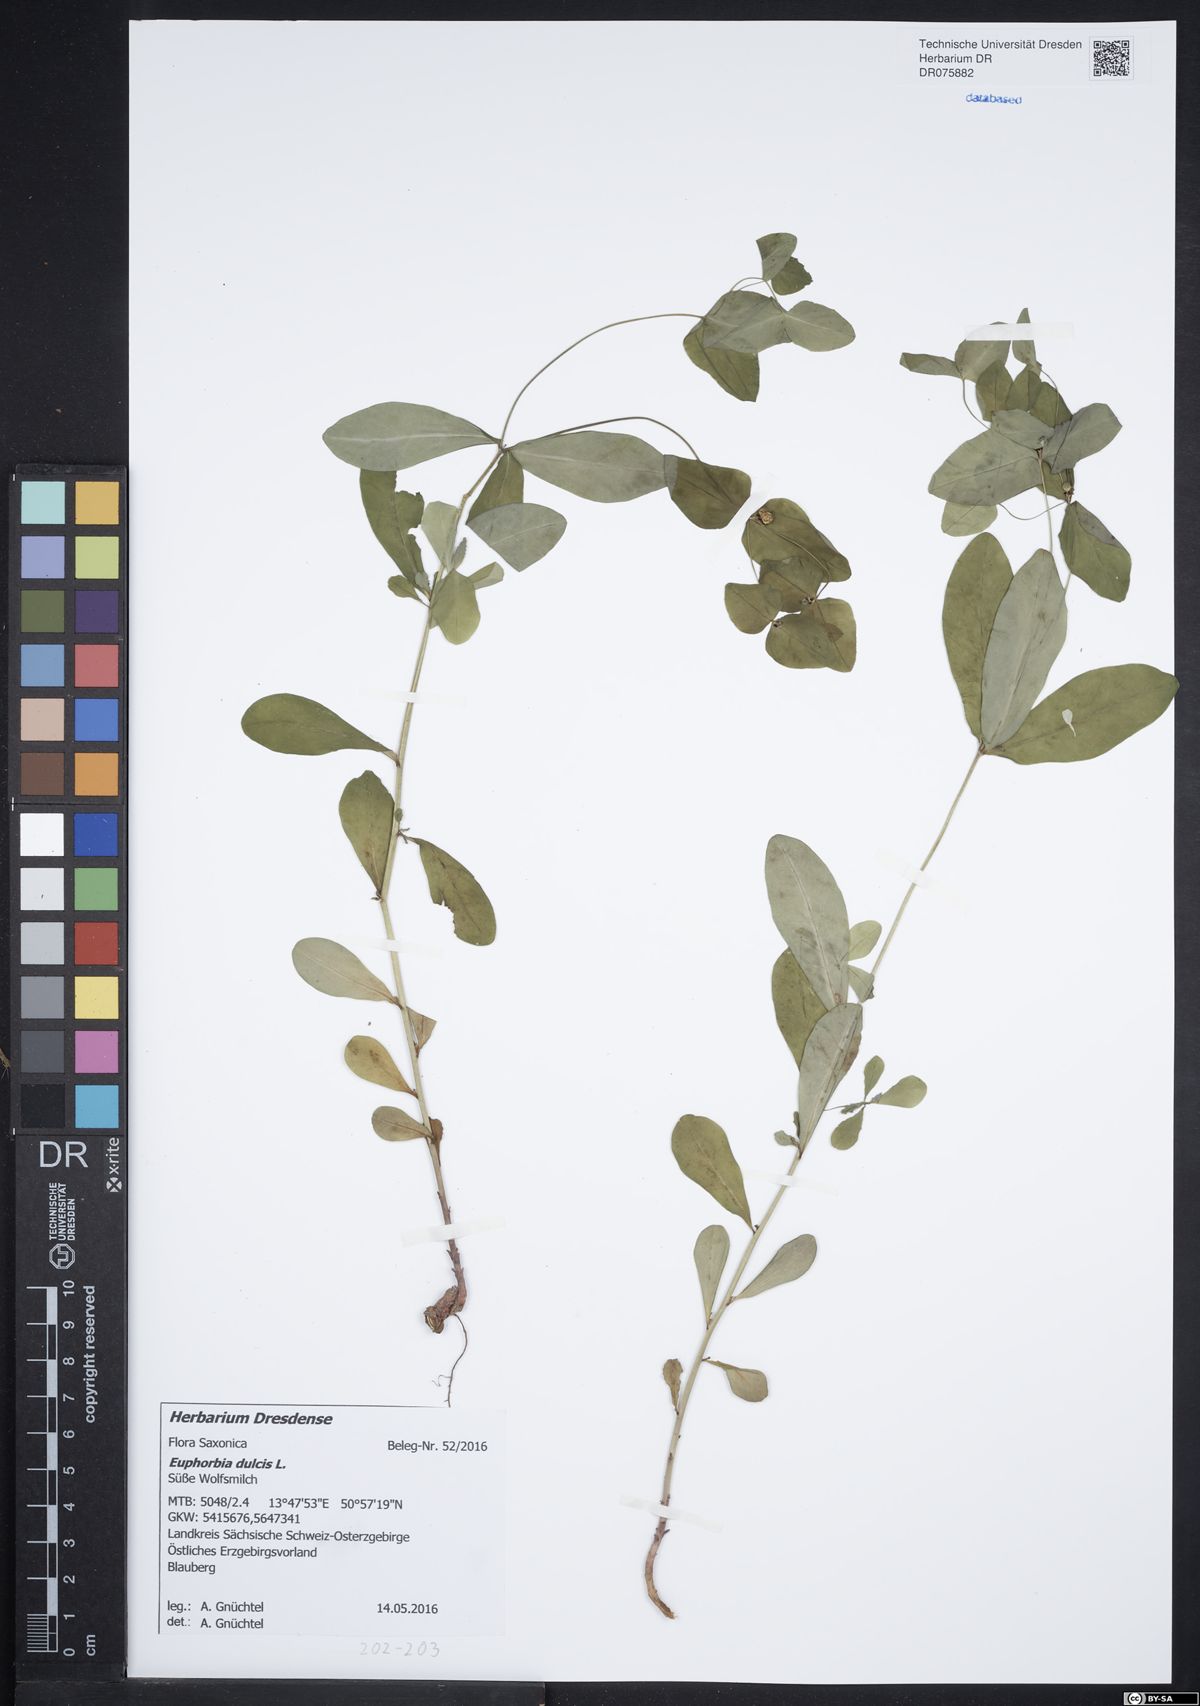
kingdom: Plantae
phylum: Tracheophyta
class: Magnoliopsida
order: Malpighiales
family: Euphorbiaceae
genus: Euphorbia
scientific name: Euphorbia dulcis
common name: Sweet spurge
